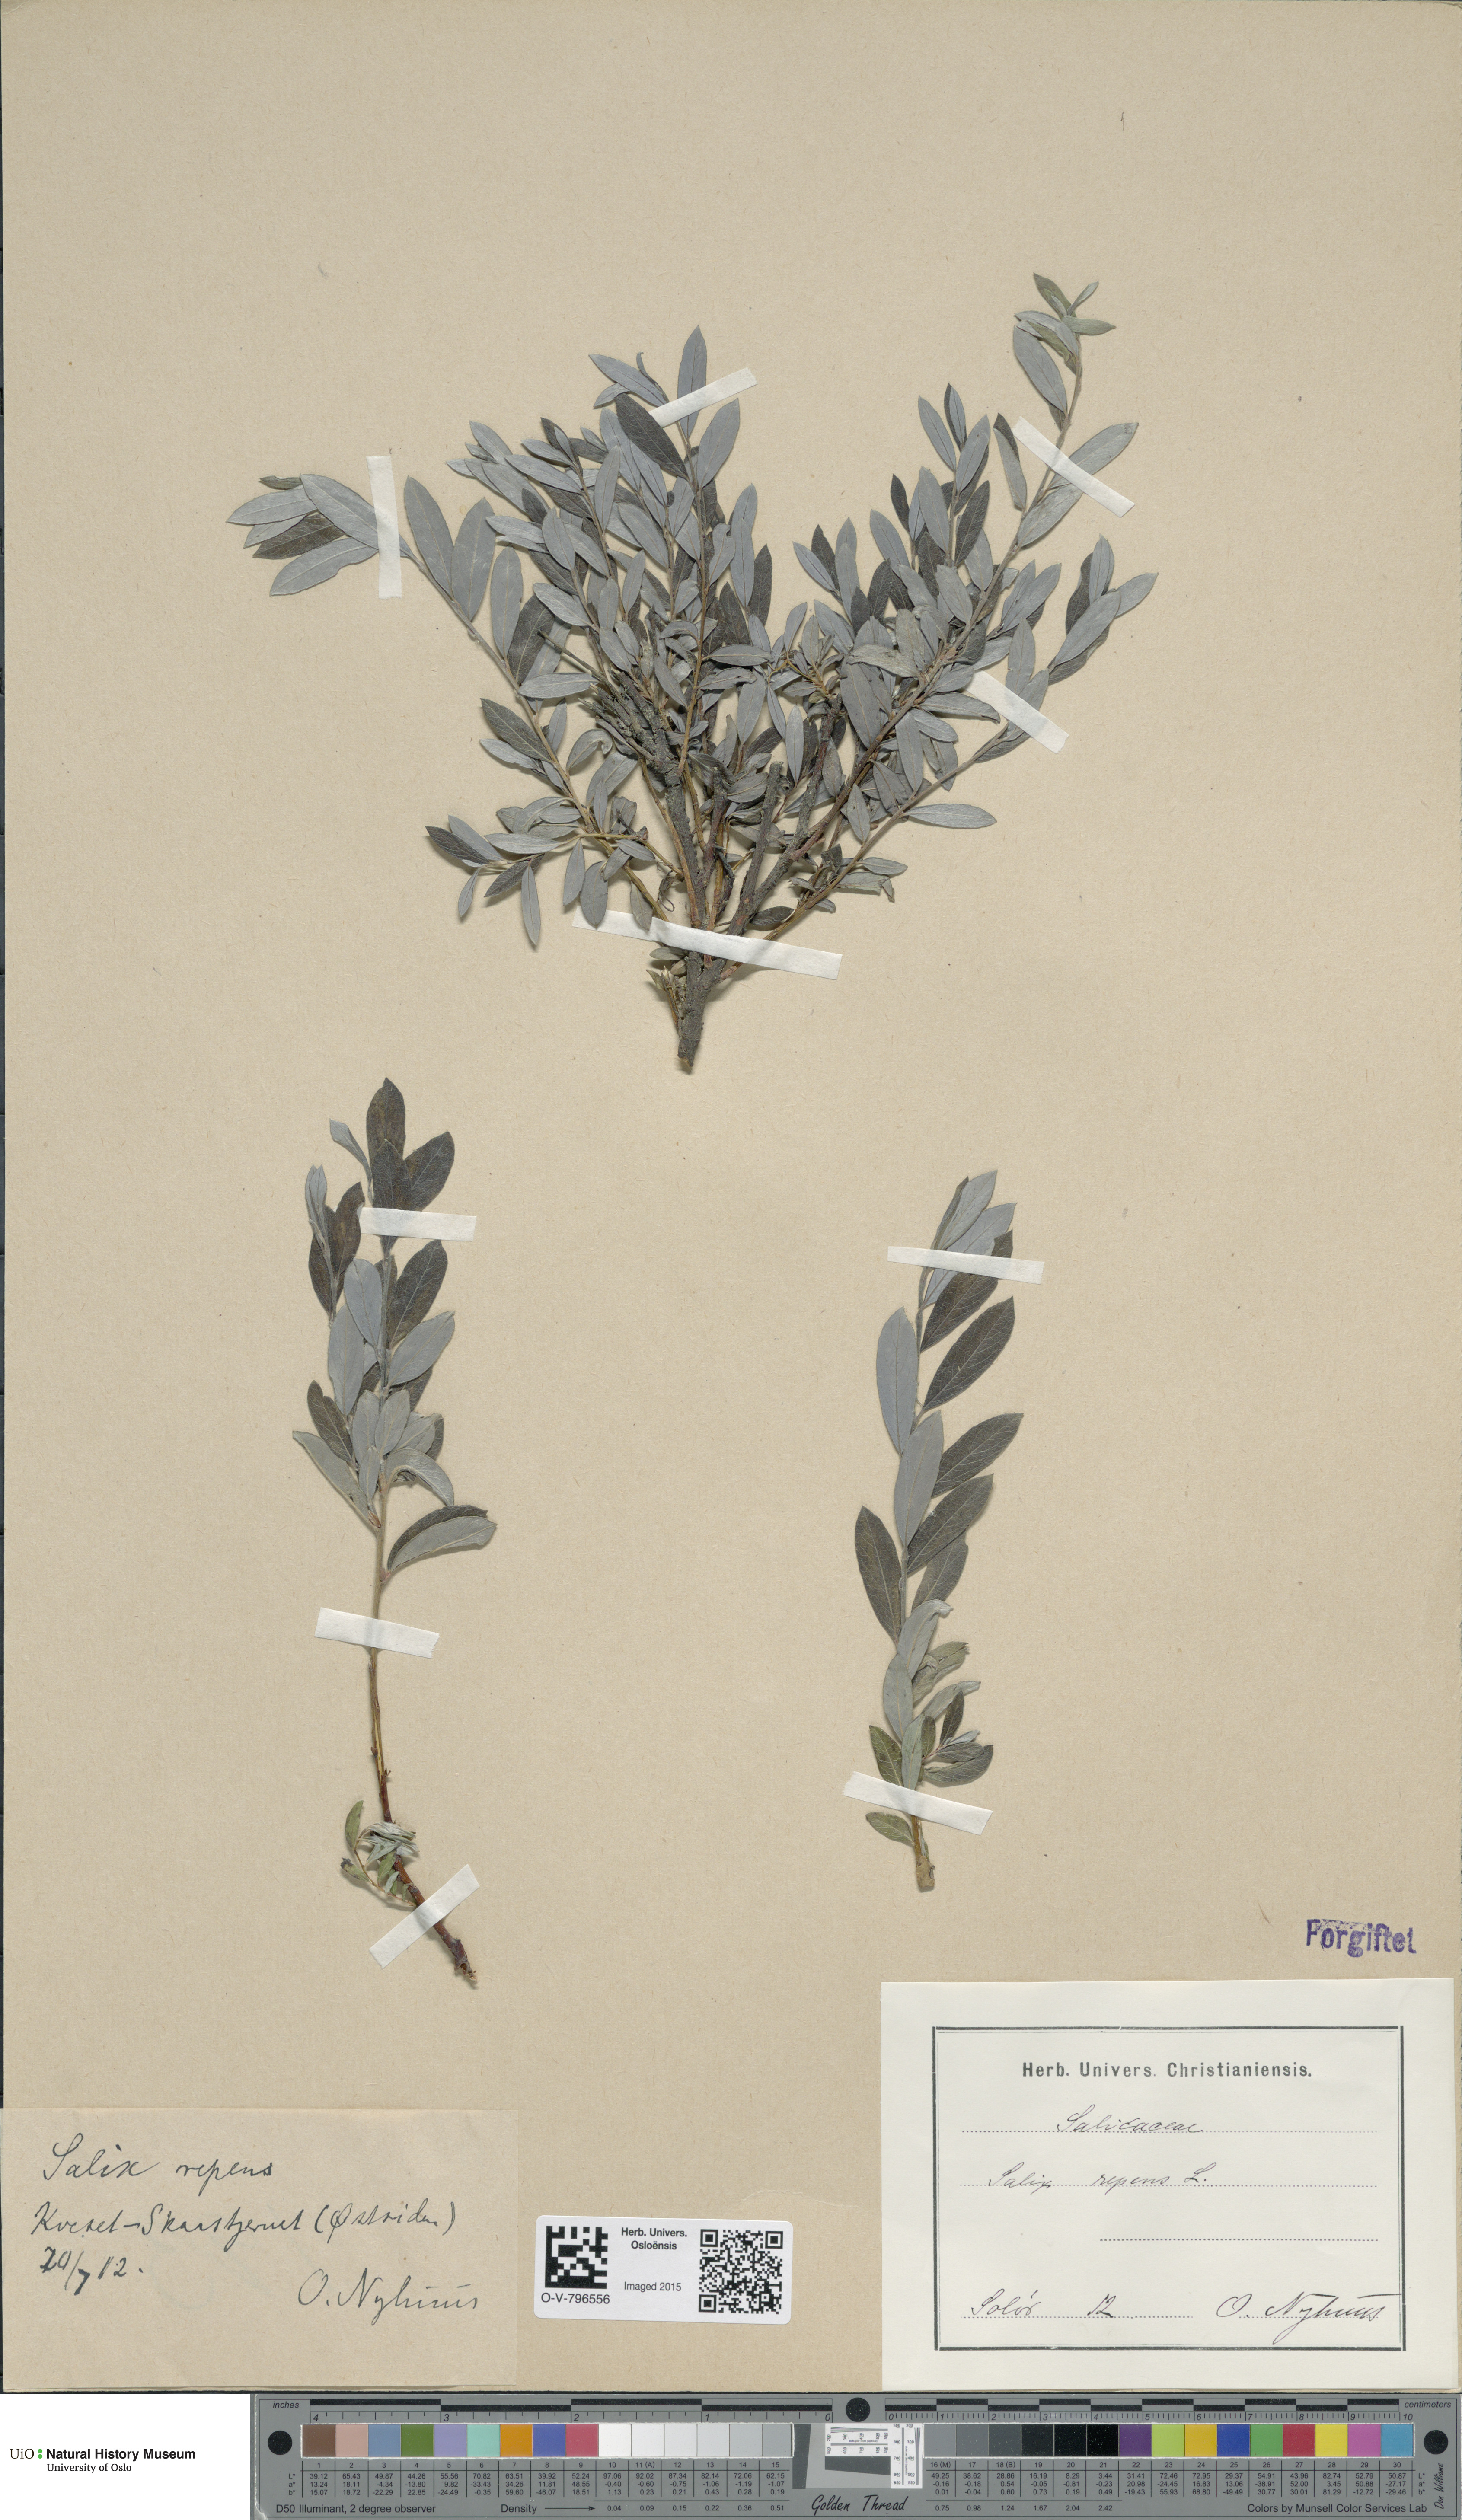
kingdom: Plantae
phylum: Tracheophyta
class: Magnoliopsida
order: Malpighiales
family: Salicaceae
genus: Salix
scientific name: Salix repens
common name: Creeping willow
